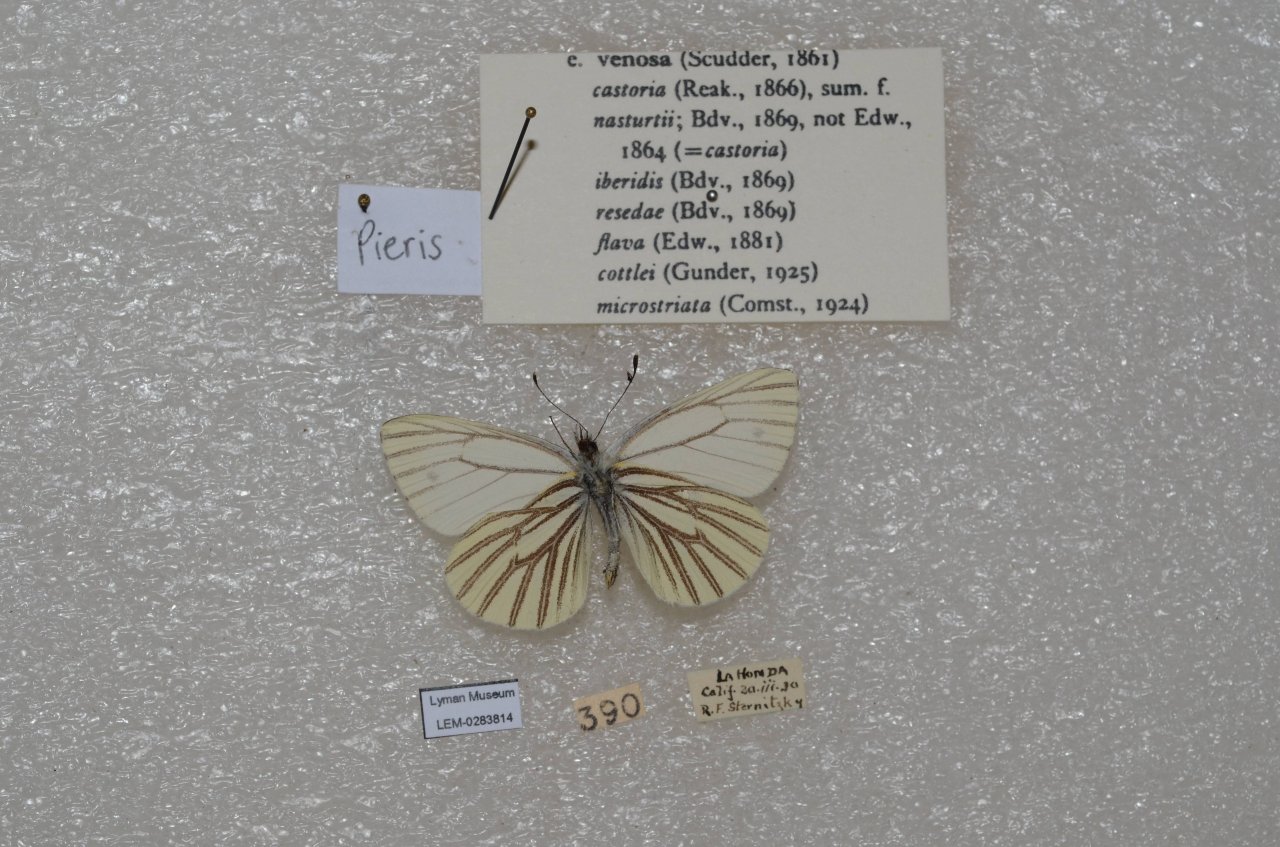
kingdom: Animalia
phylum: Arthropoda
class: Insecta
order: Lepidoptera
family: Pieridae
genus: Pieris
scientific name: Pieris
